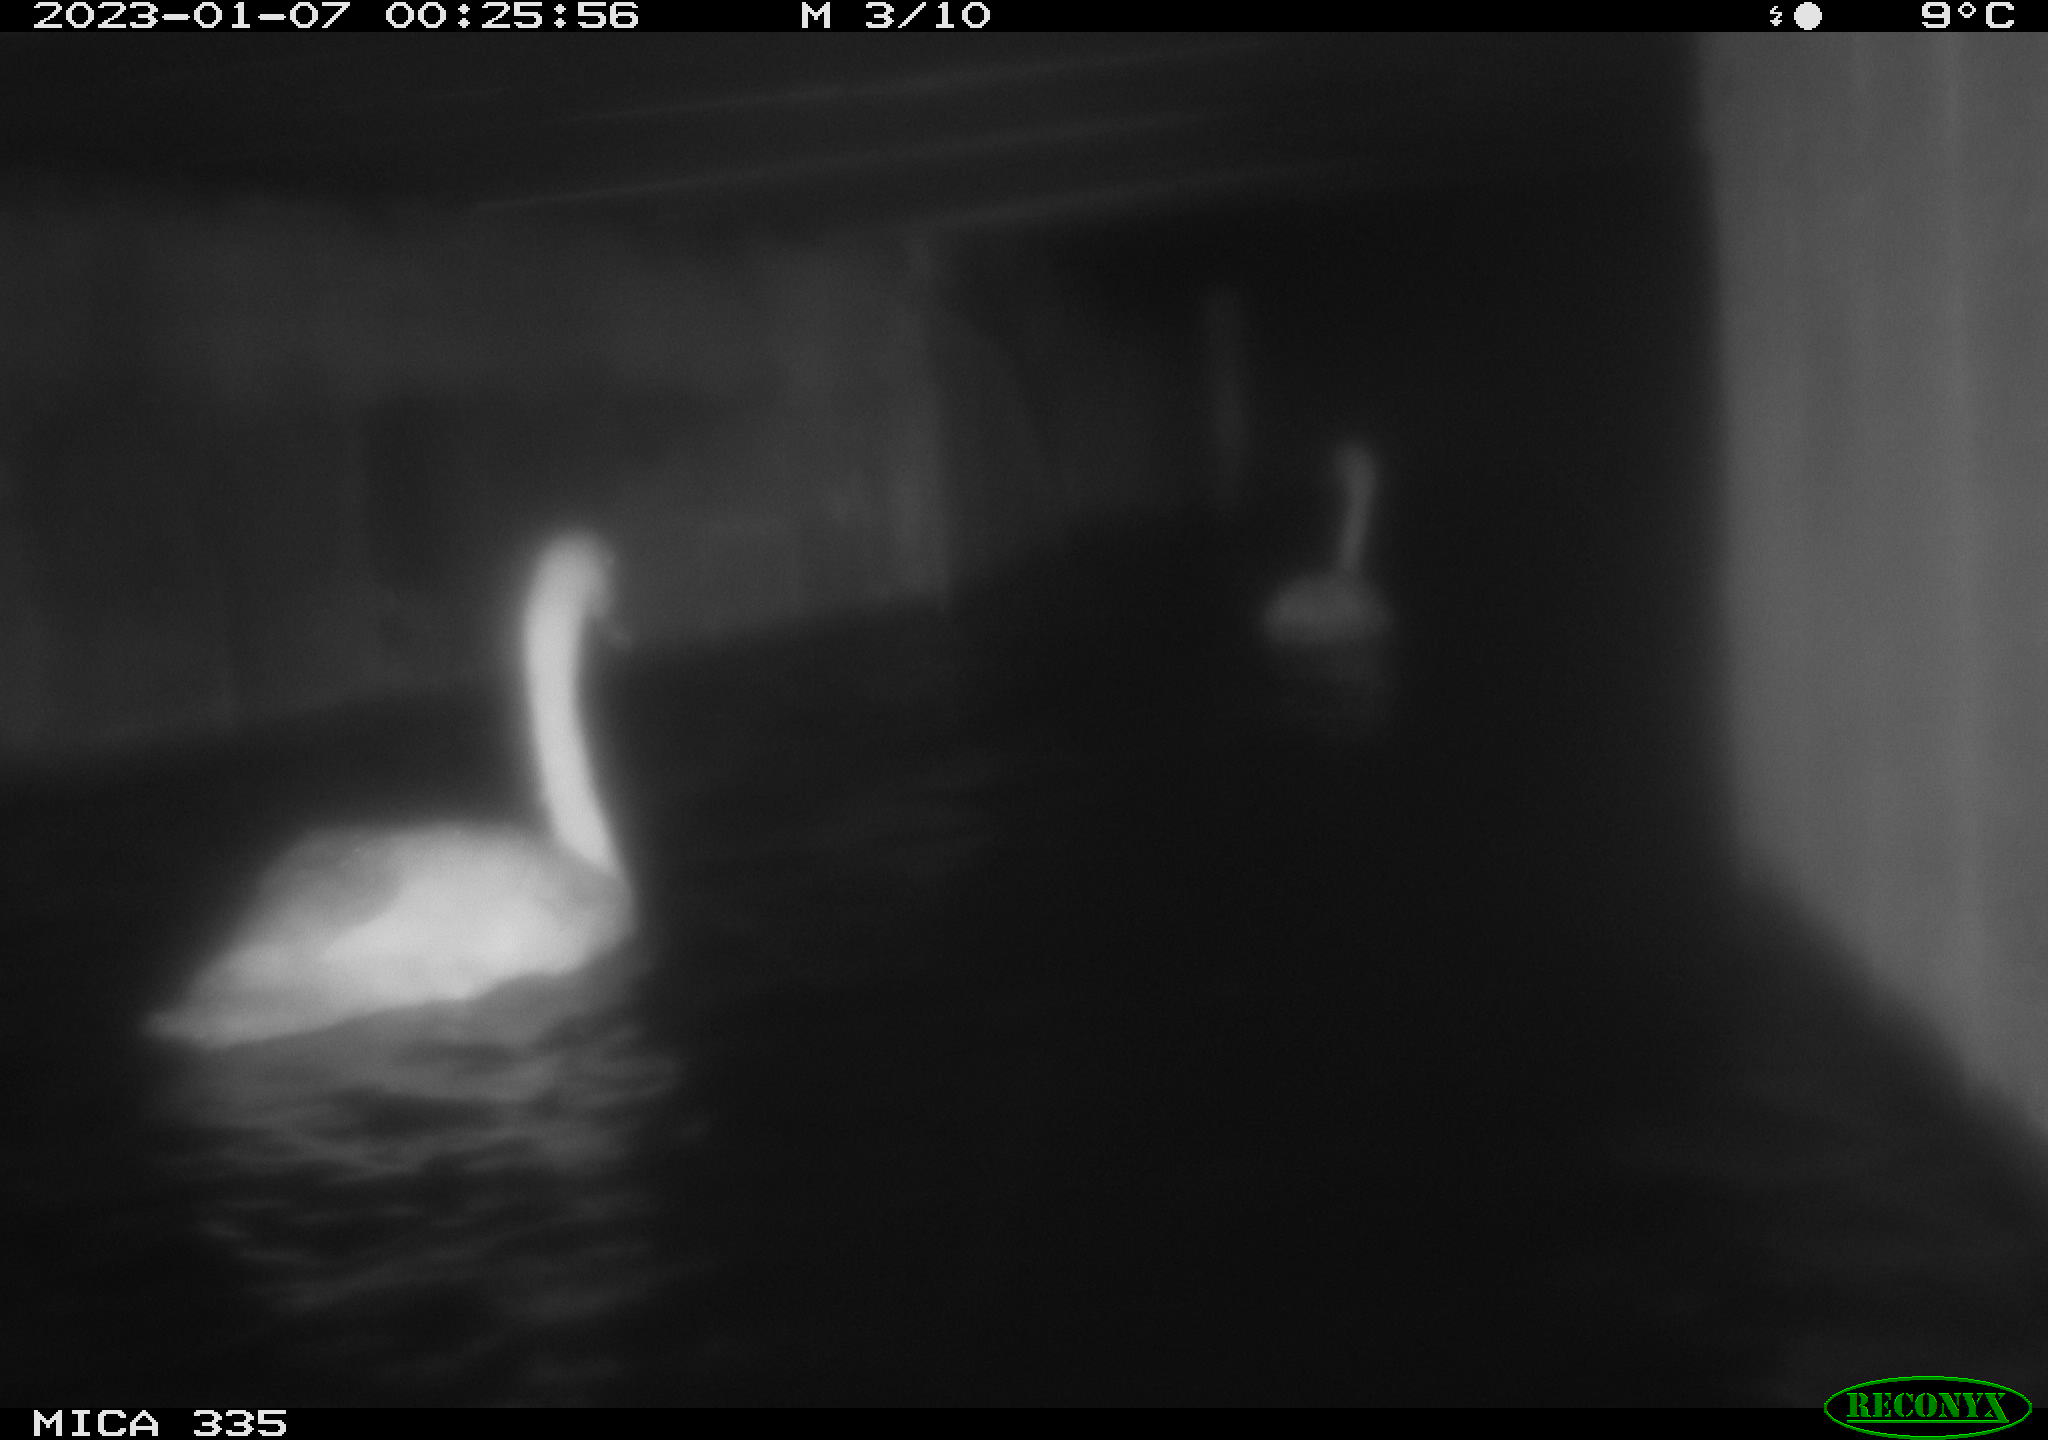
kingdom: Animalia
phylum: Chordata
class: Aves
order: Anseriformes
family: Anatidae
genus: Cygnus
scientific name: Cygnus olor
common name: Mute swan
